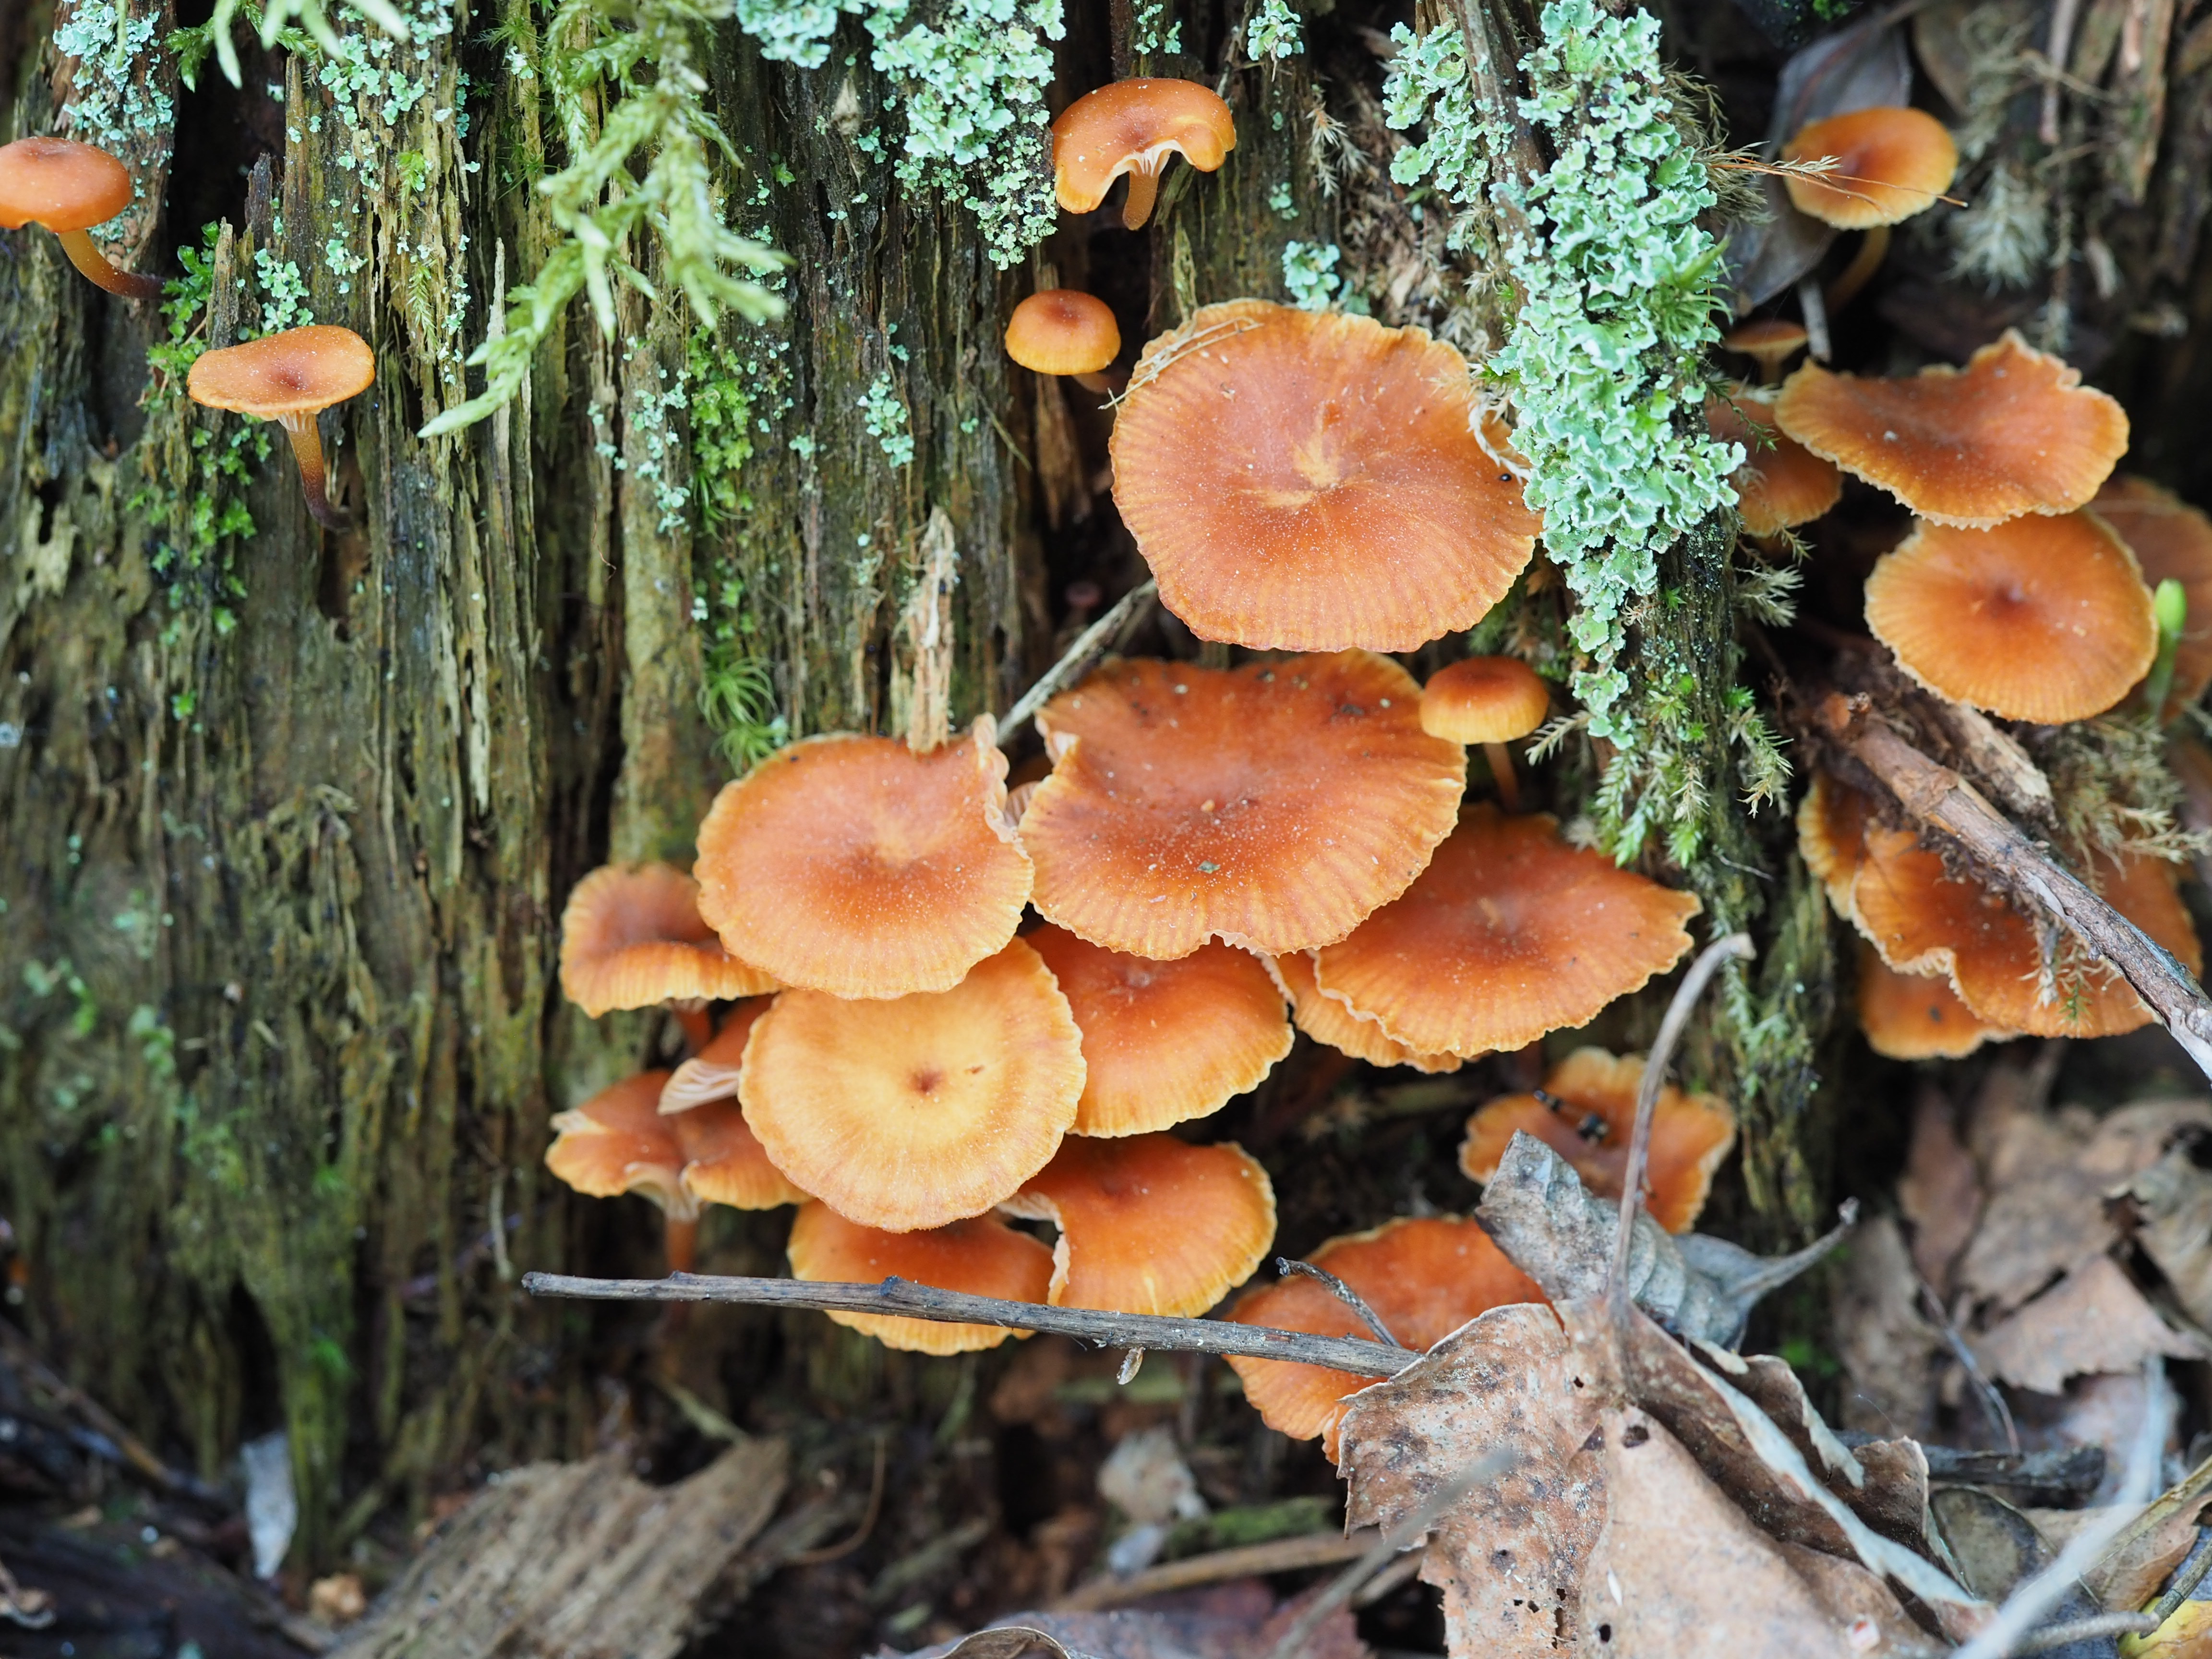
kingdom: Fungi
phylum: Basidiomycota
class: Agaricomycetes
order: Agaricales
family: Mycenaceae
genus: Xeromphalina
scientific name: Xeromphalina campanella
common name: Pinewood gingertail
